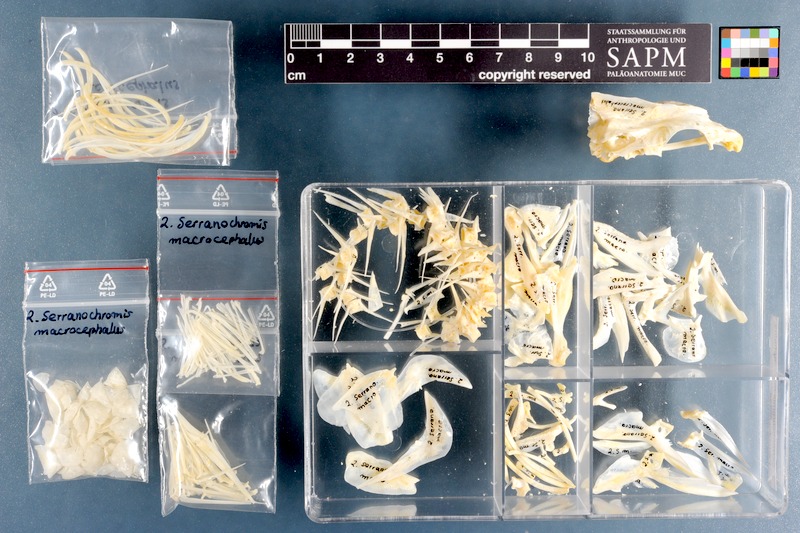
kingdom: Animalia
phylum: Chordata
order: Perciformes
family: Cichlidae
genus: Serranochromis
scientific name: Serranochromis macrocephalus
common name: Purpleface largemouth
